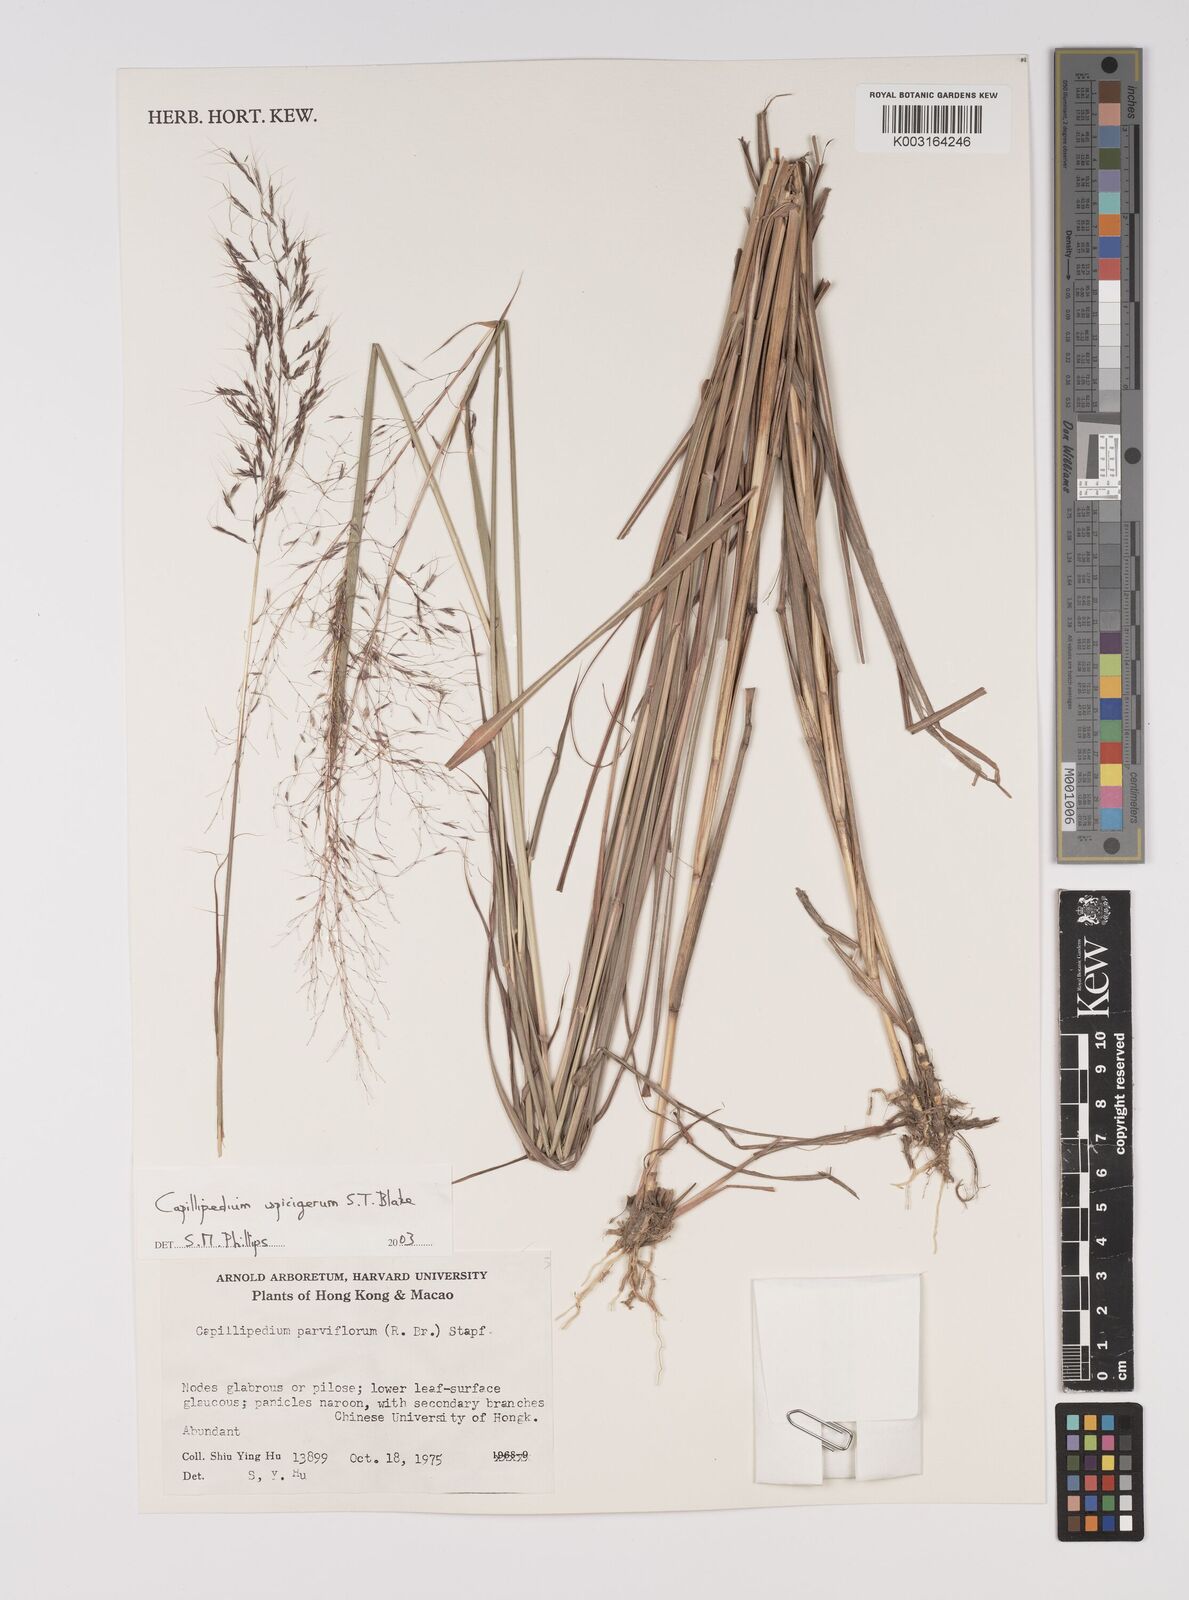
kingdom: Plantae
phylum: Tracheophyta
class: Liliopsida
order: Poales
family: Poaceae
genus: Capillipedium
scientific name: Capillipedium spicigerum
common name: Scented-top grass
